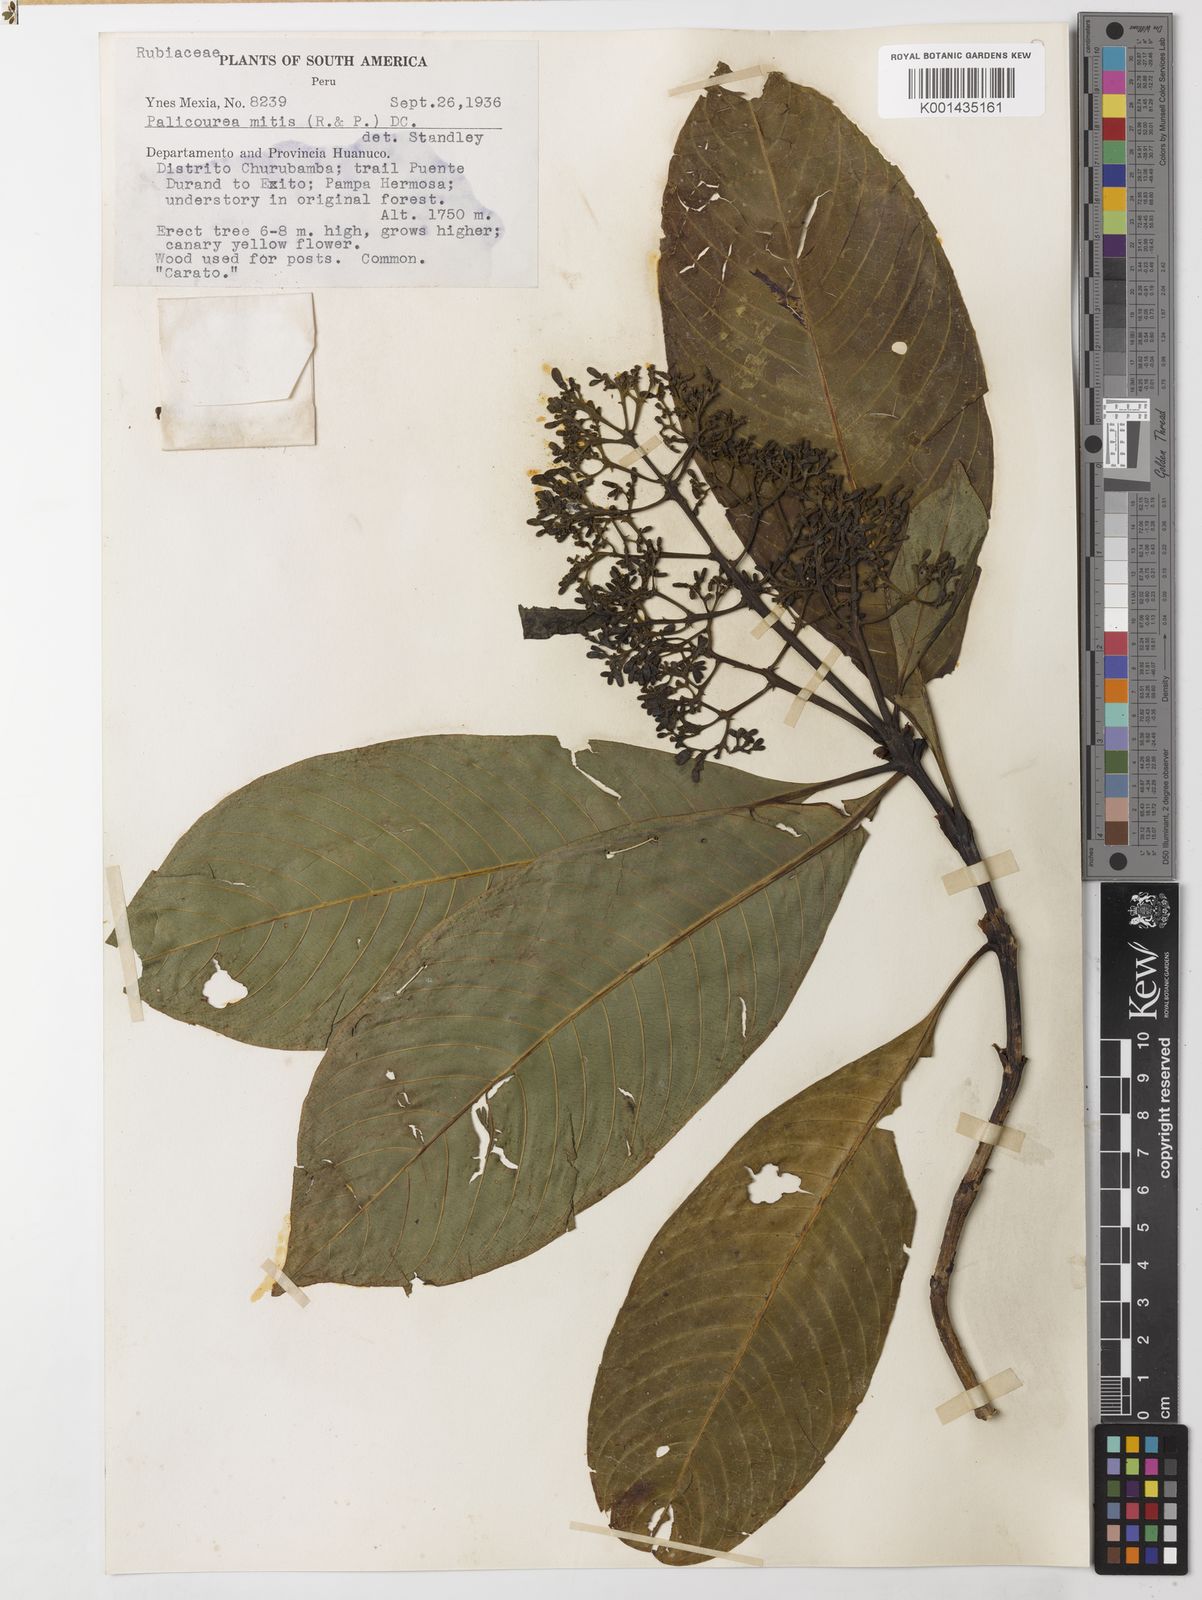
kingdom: Plantae
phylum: Tracheophyta
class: Magnoliopsida
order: Gentianales
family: Rubiaceae
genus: Palicourea
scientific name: Palicourea sulphurea
